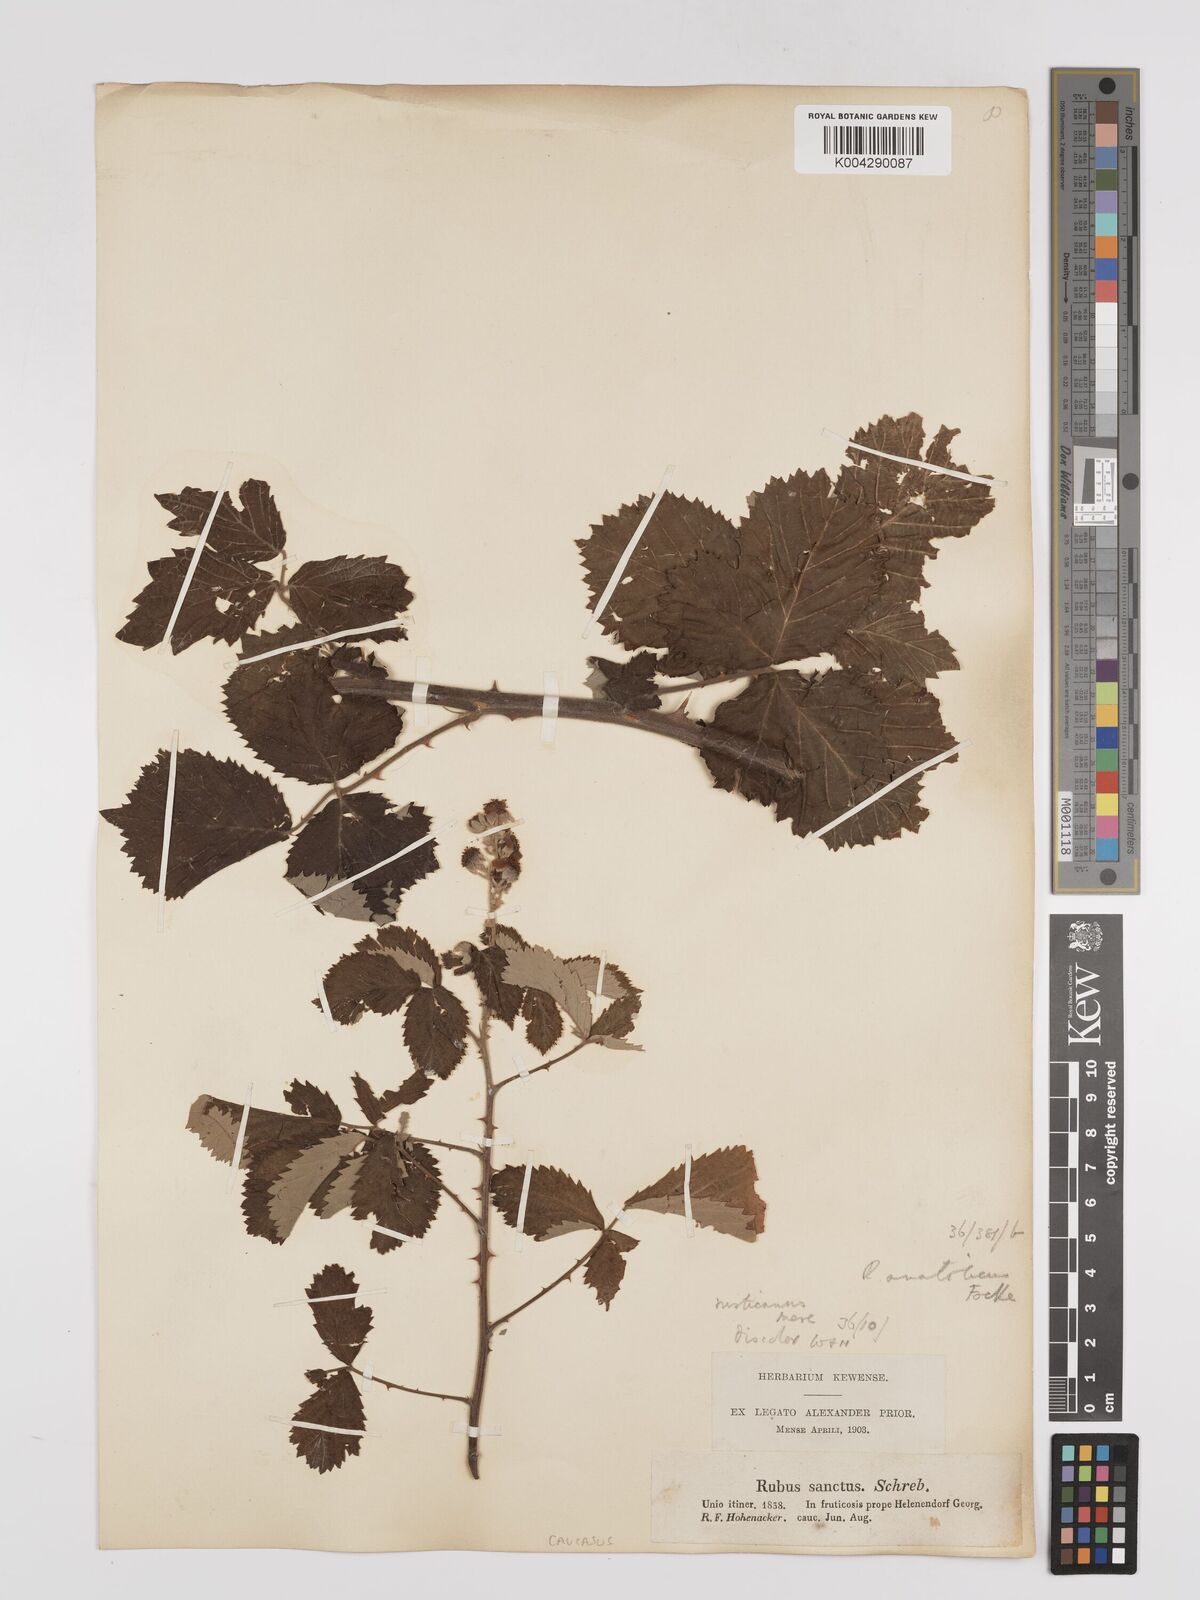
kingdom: Plantae
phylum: Tracheophyta
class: Magnoliopsida
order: Rosales
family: Rosaceae
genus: Rubus
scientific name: Rubus sanctus
